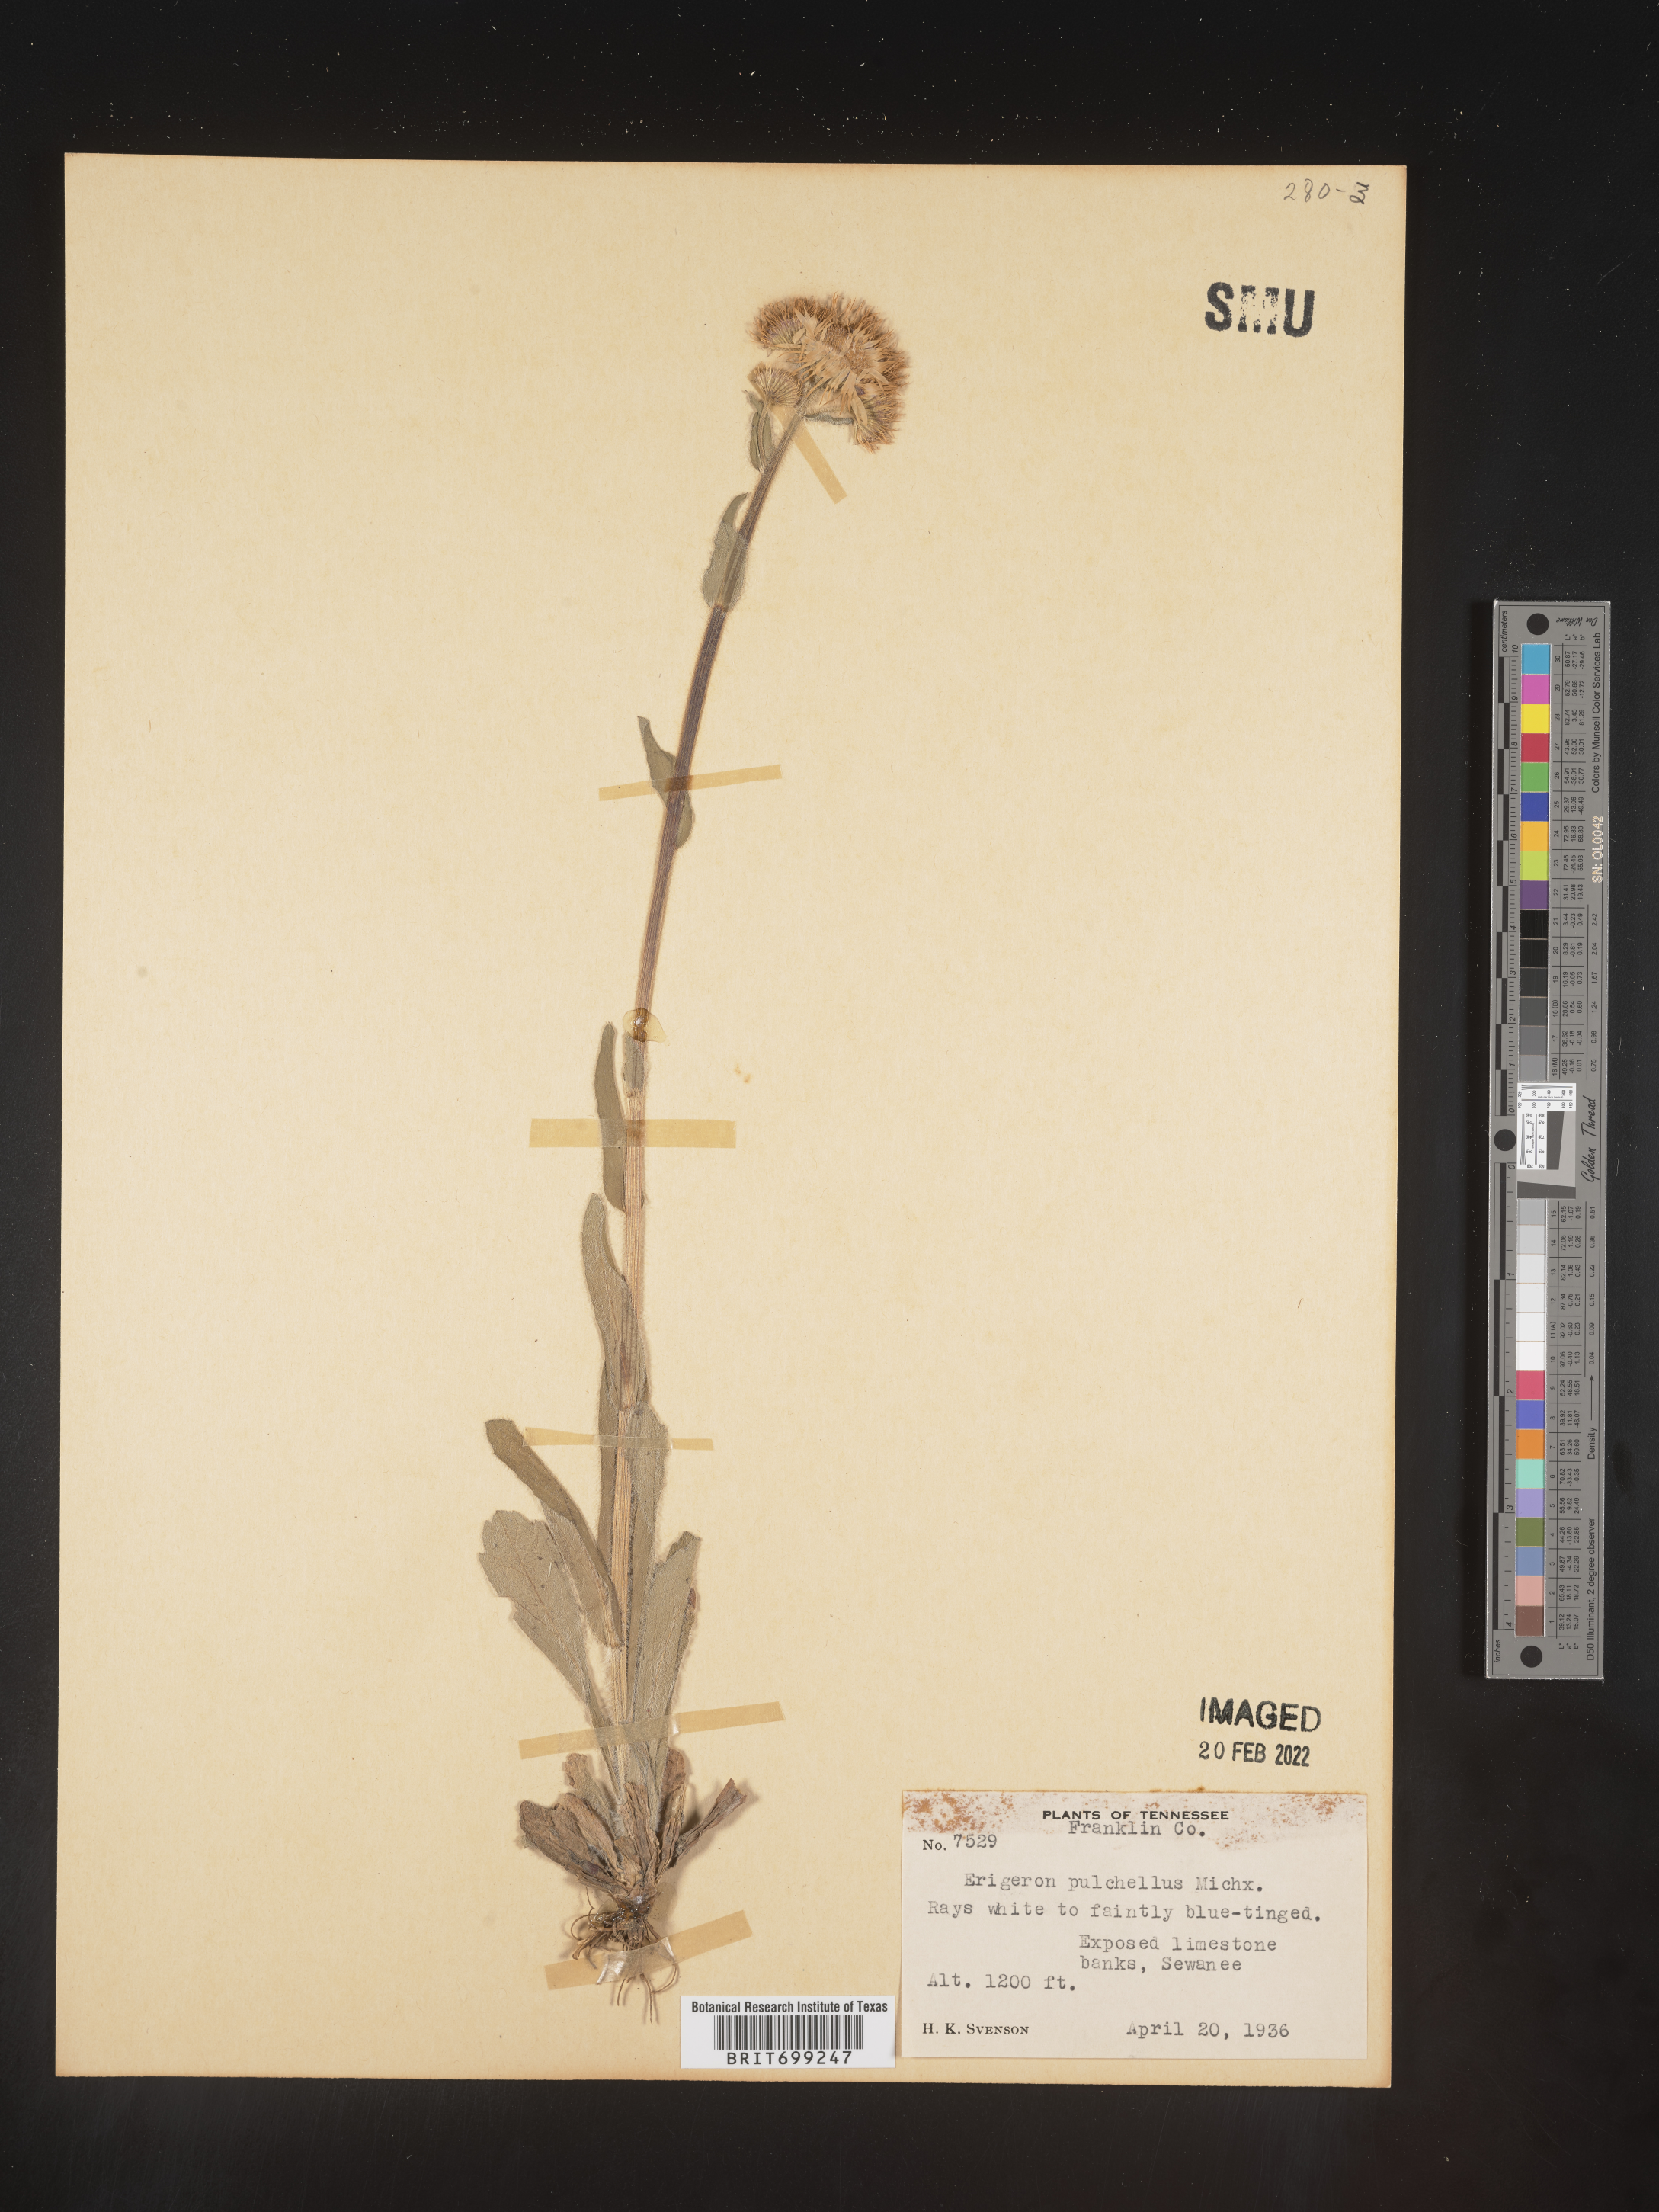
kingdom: Plantae
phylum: Tracheophyta
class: Magnoliopsida
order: Asterales
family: Asteraceae
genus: Erigeron
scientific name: Erigeron pulchellus
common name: Hairy fleabane
